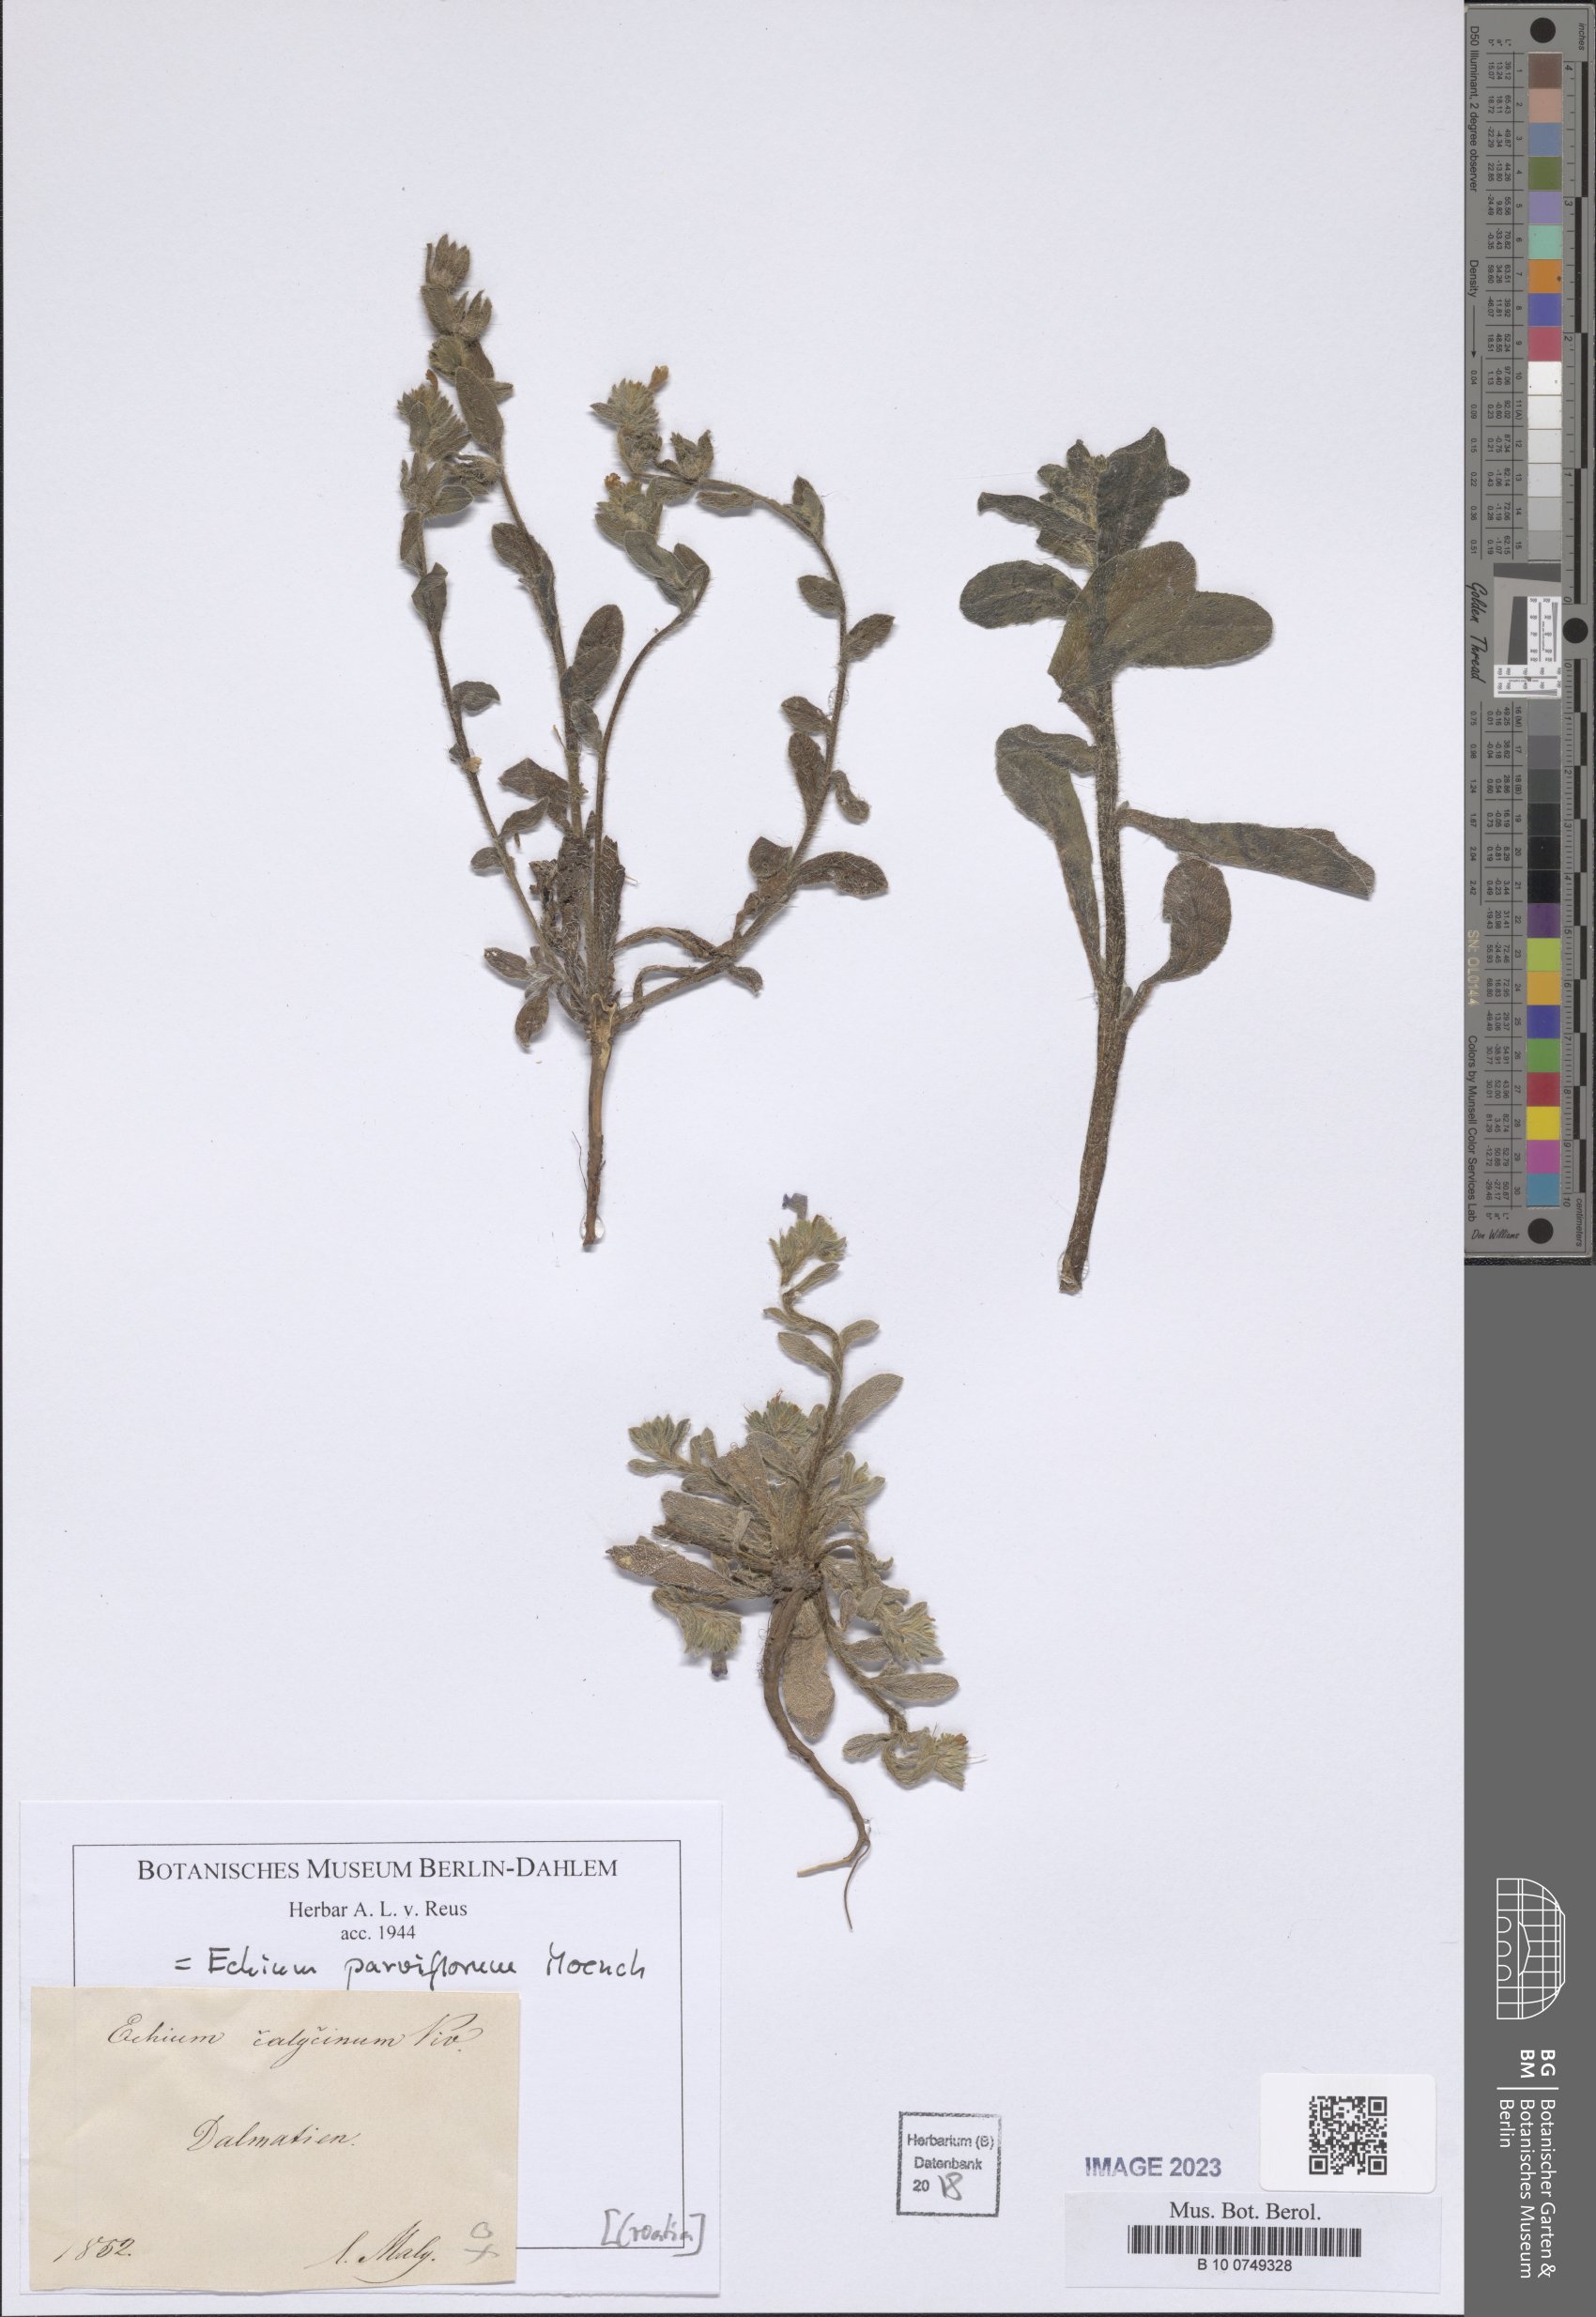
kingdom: Plantae
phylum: Tracheophyta
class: Magnoliopsida
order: Boraginales
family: Boraginaceae
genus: Echium
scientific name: Echium parviflorum
